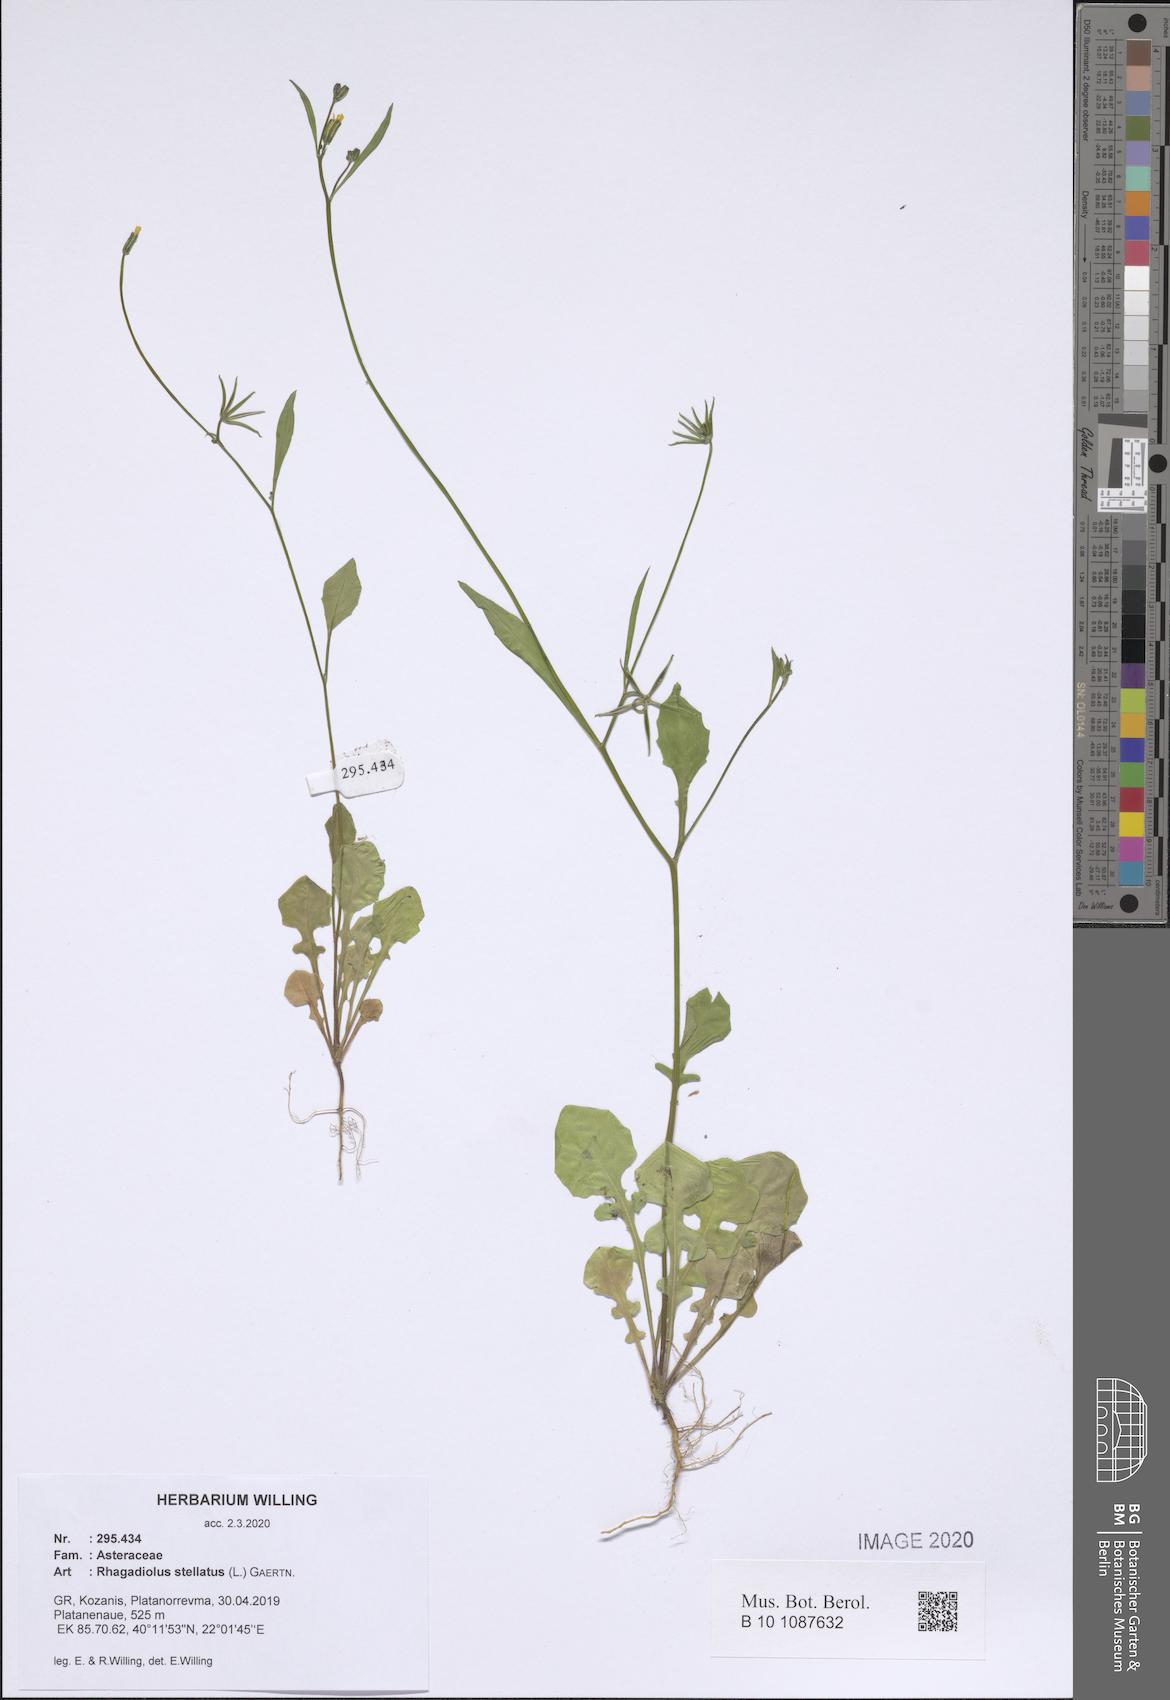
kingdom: Plantae
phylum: Tracheophyta
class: Magnoliopsida
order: Asterales
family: Asteraceae
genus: Rhagadiolus
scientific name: Rhagadiolus stellatus
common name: Star hawkbit
